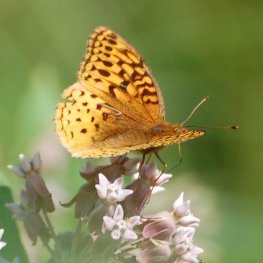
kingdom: Animalia
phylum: Arthropoda
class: Insecta
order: Lepidoptera
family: Nymphalidae
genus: Speyeria
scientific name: Speyeria aphrodite
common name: Aphrodite Fritillary
